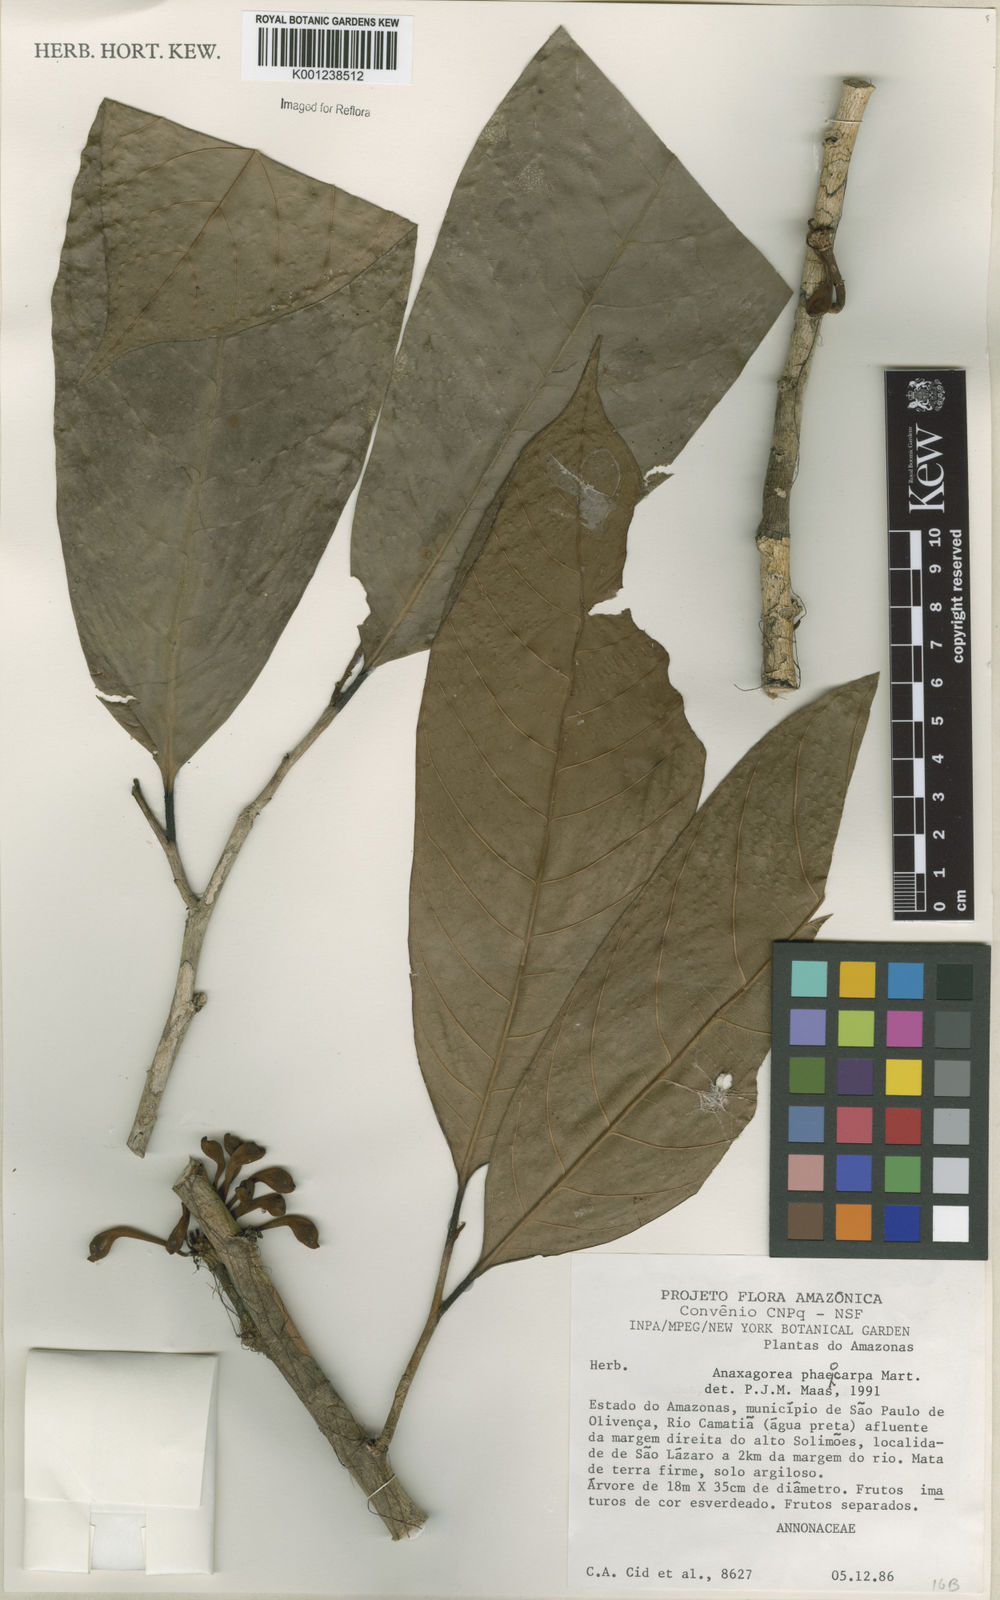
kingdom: Plantae
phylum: Tracheophyta
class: Magnoliopsida
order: Magnoliales
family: Annonaceae
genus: Anaxagorea
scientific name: Anaxagorea phaeocarpa
